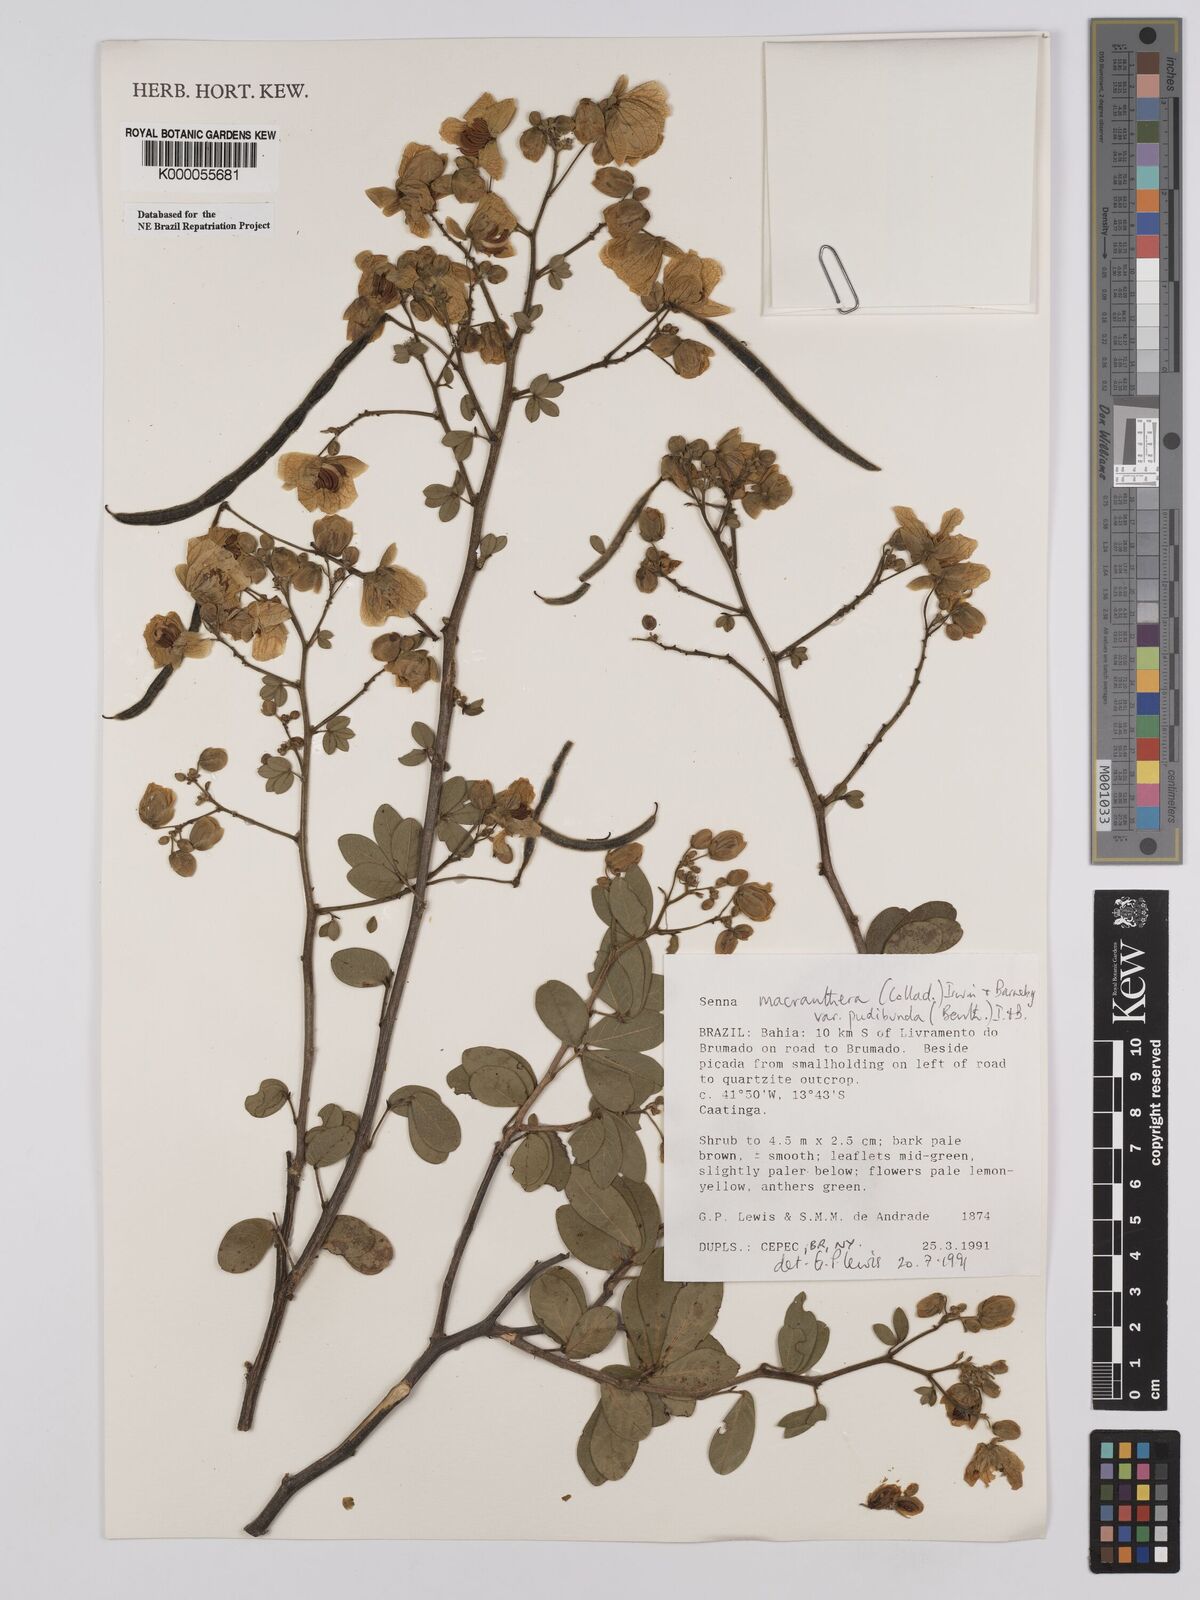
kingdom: Plantae
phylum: Tracheophyta
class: Magnoliopsida
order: Fabales
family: Fabaceae
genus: Senna
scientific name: Senna macranthera
